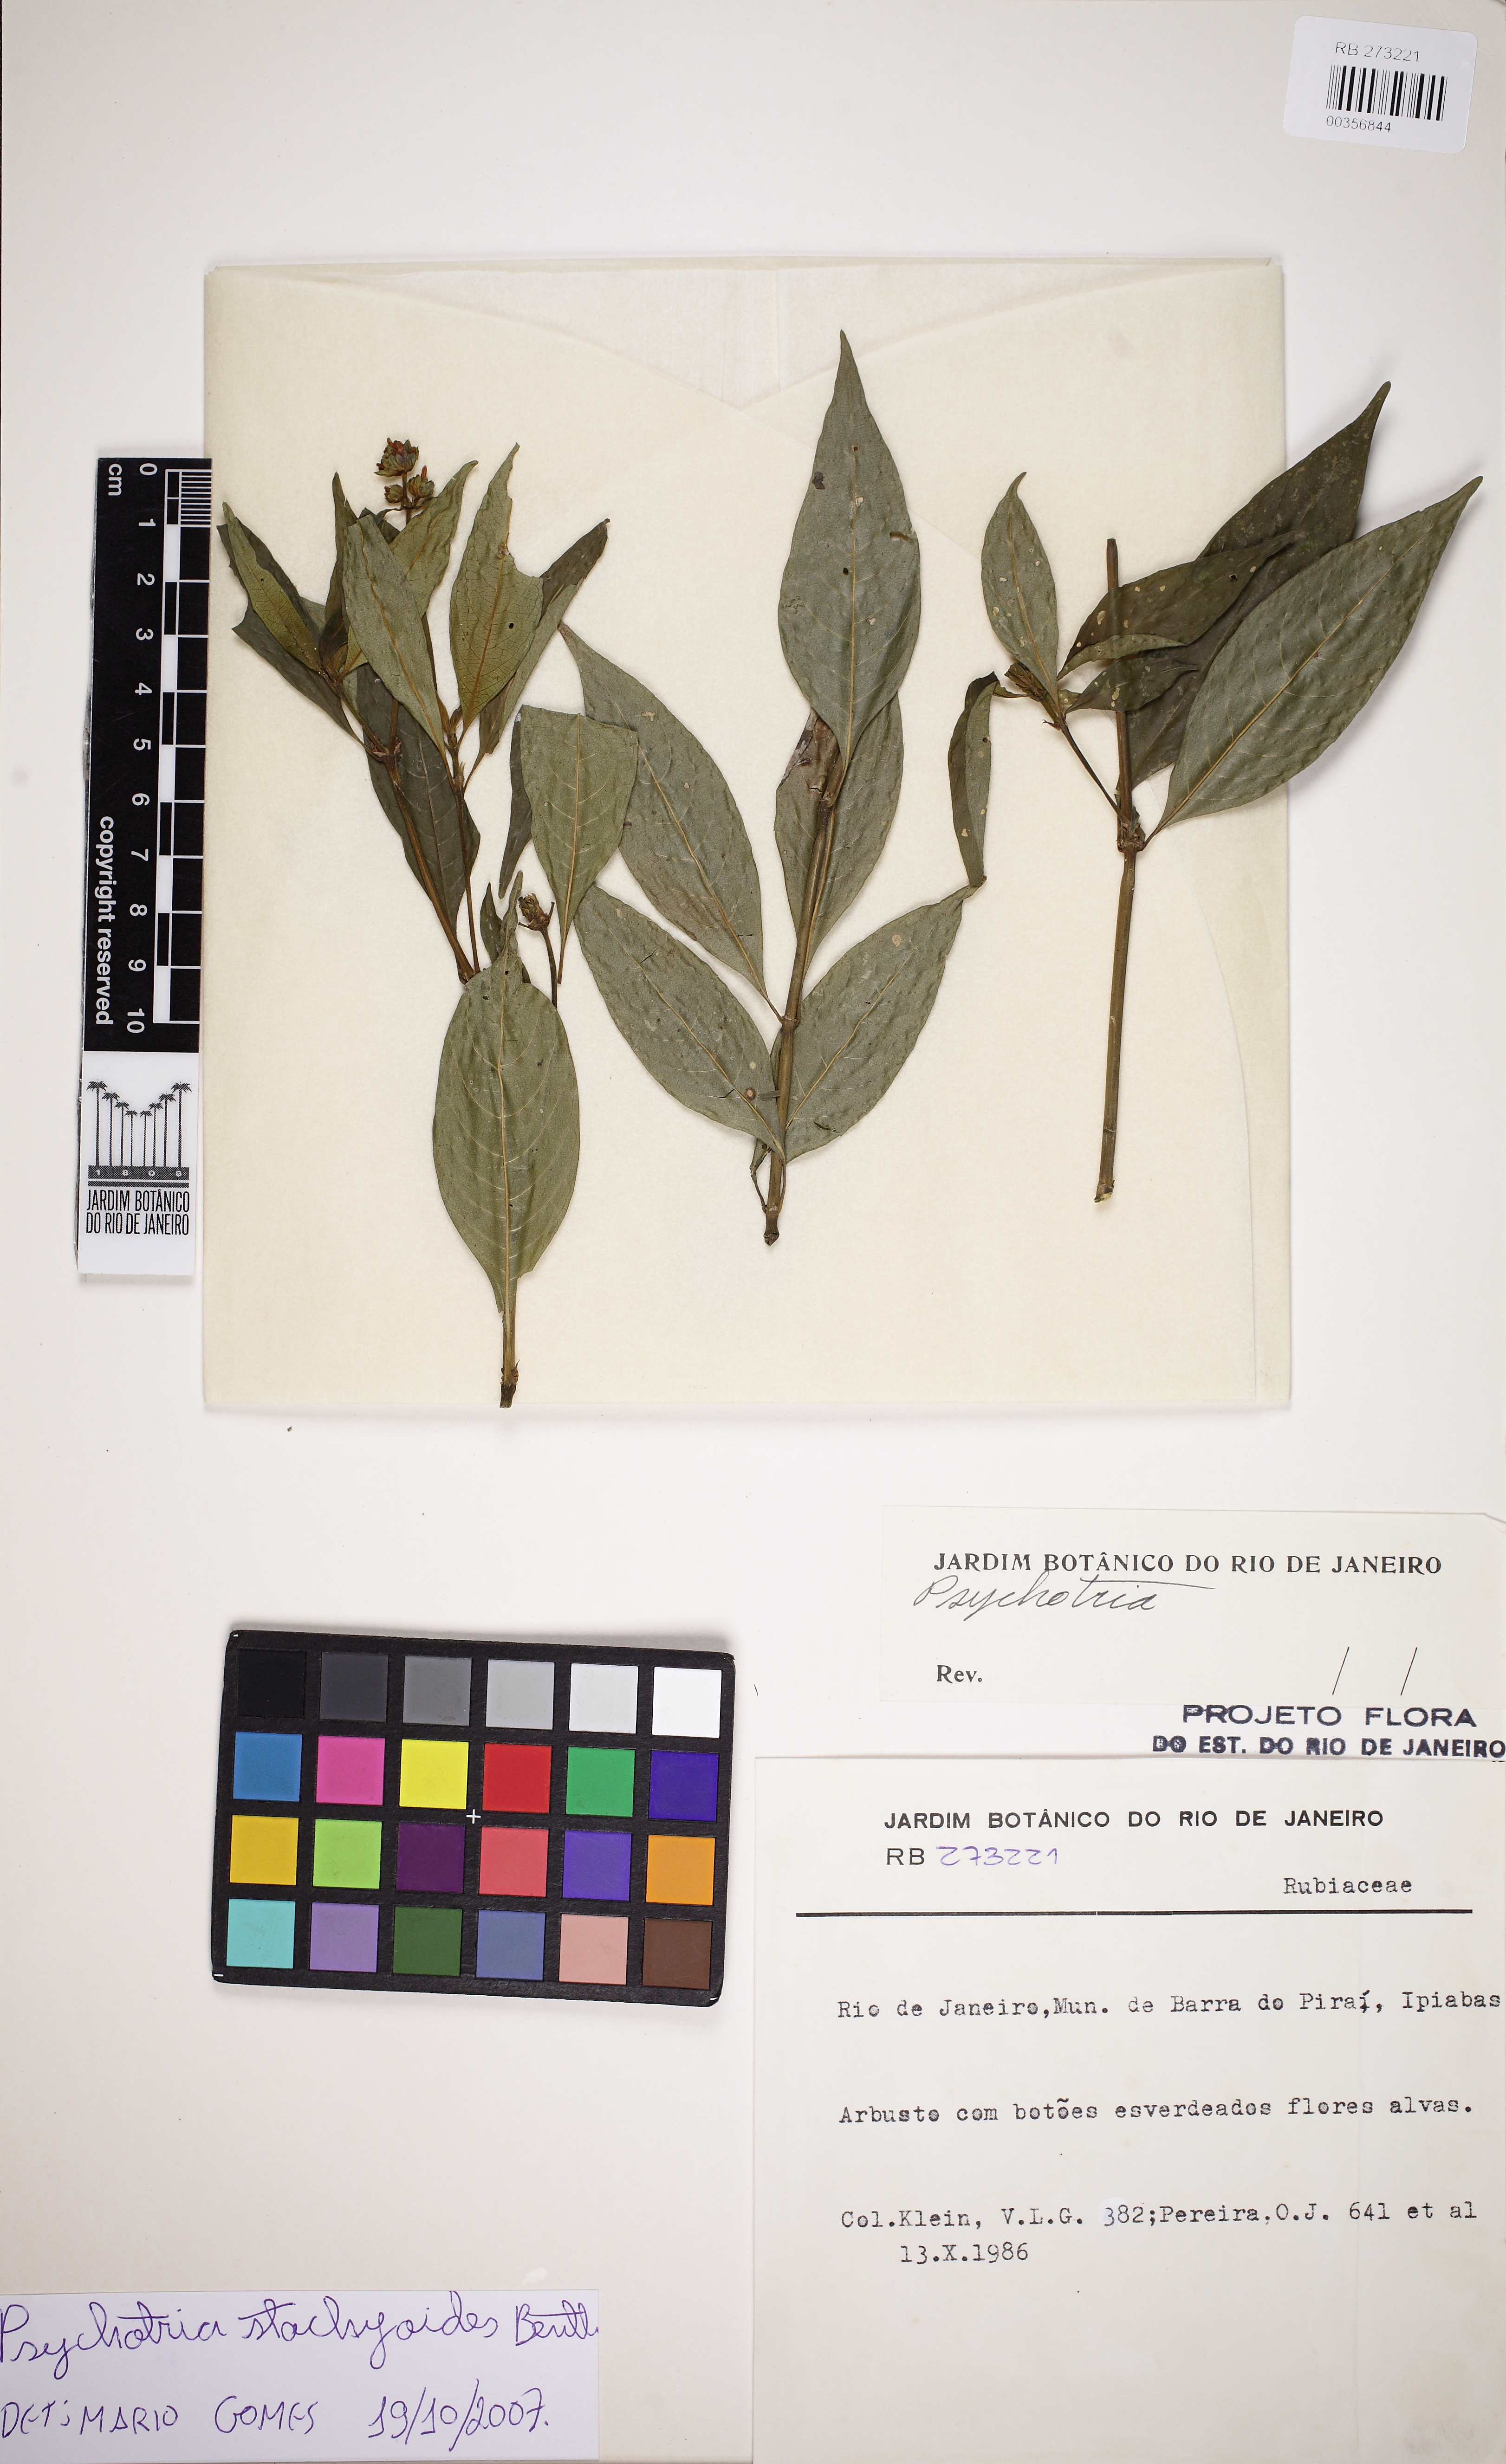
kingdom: Plantae
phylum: Tracheophyta
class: Magnoliopsida
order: Gentianales
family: Rubiaceae
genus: Psychotria
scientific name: Psychotria stachyoides
